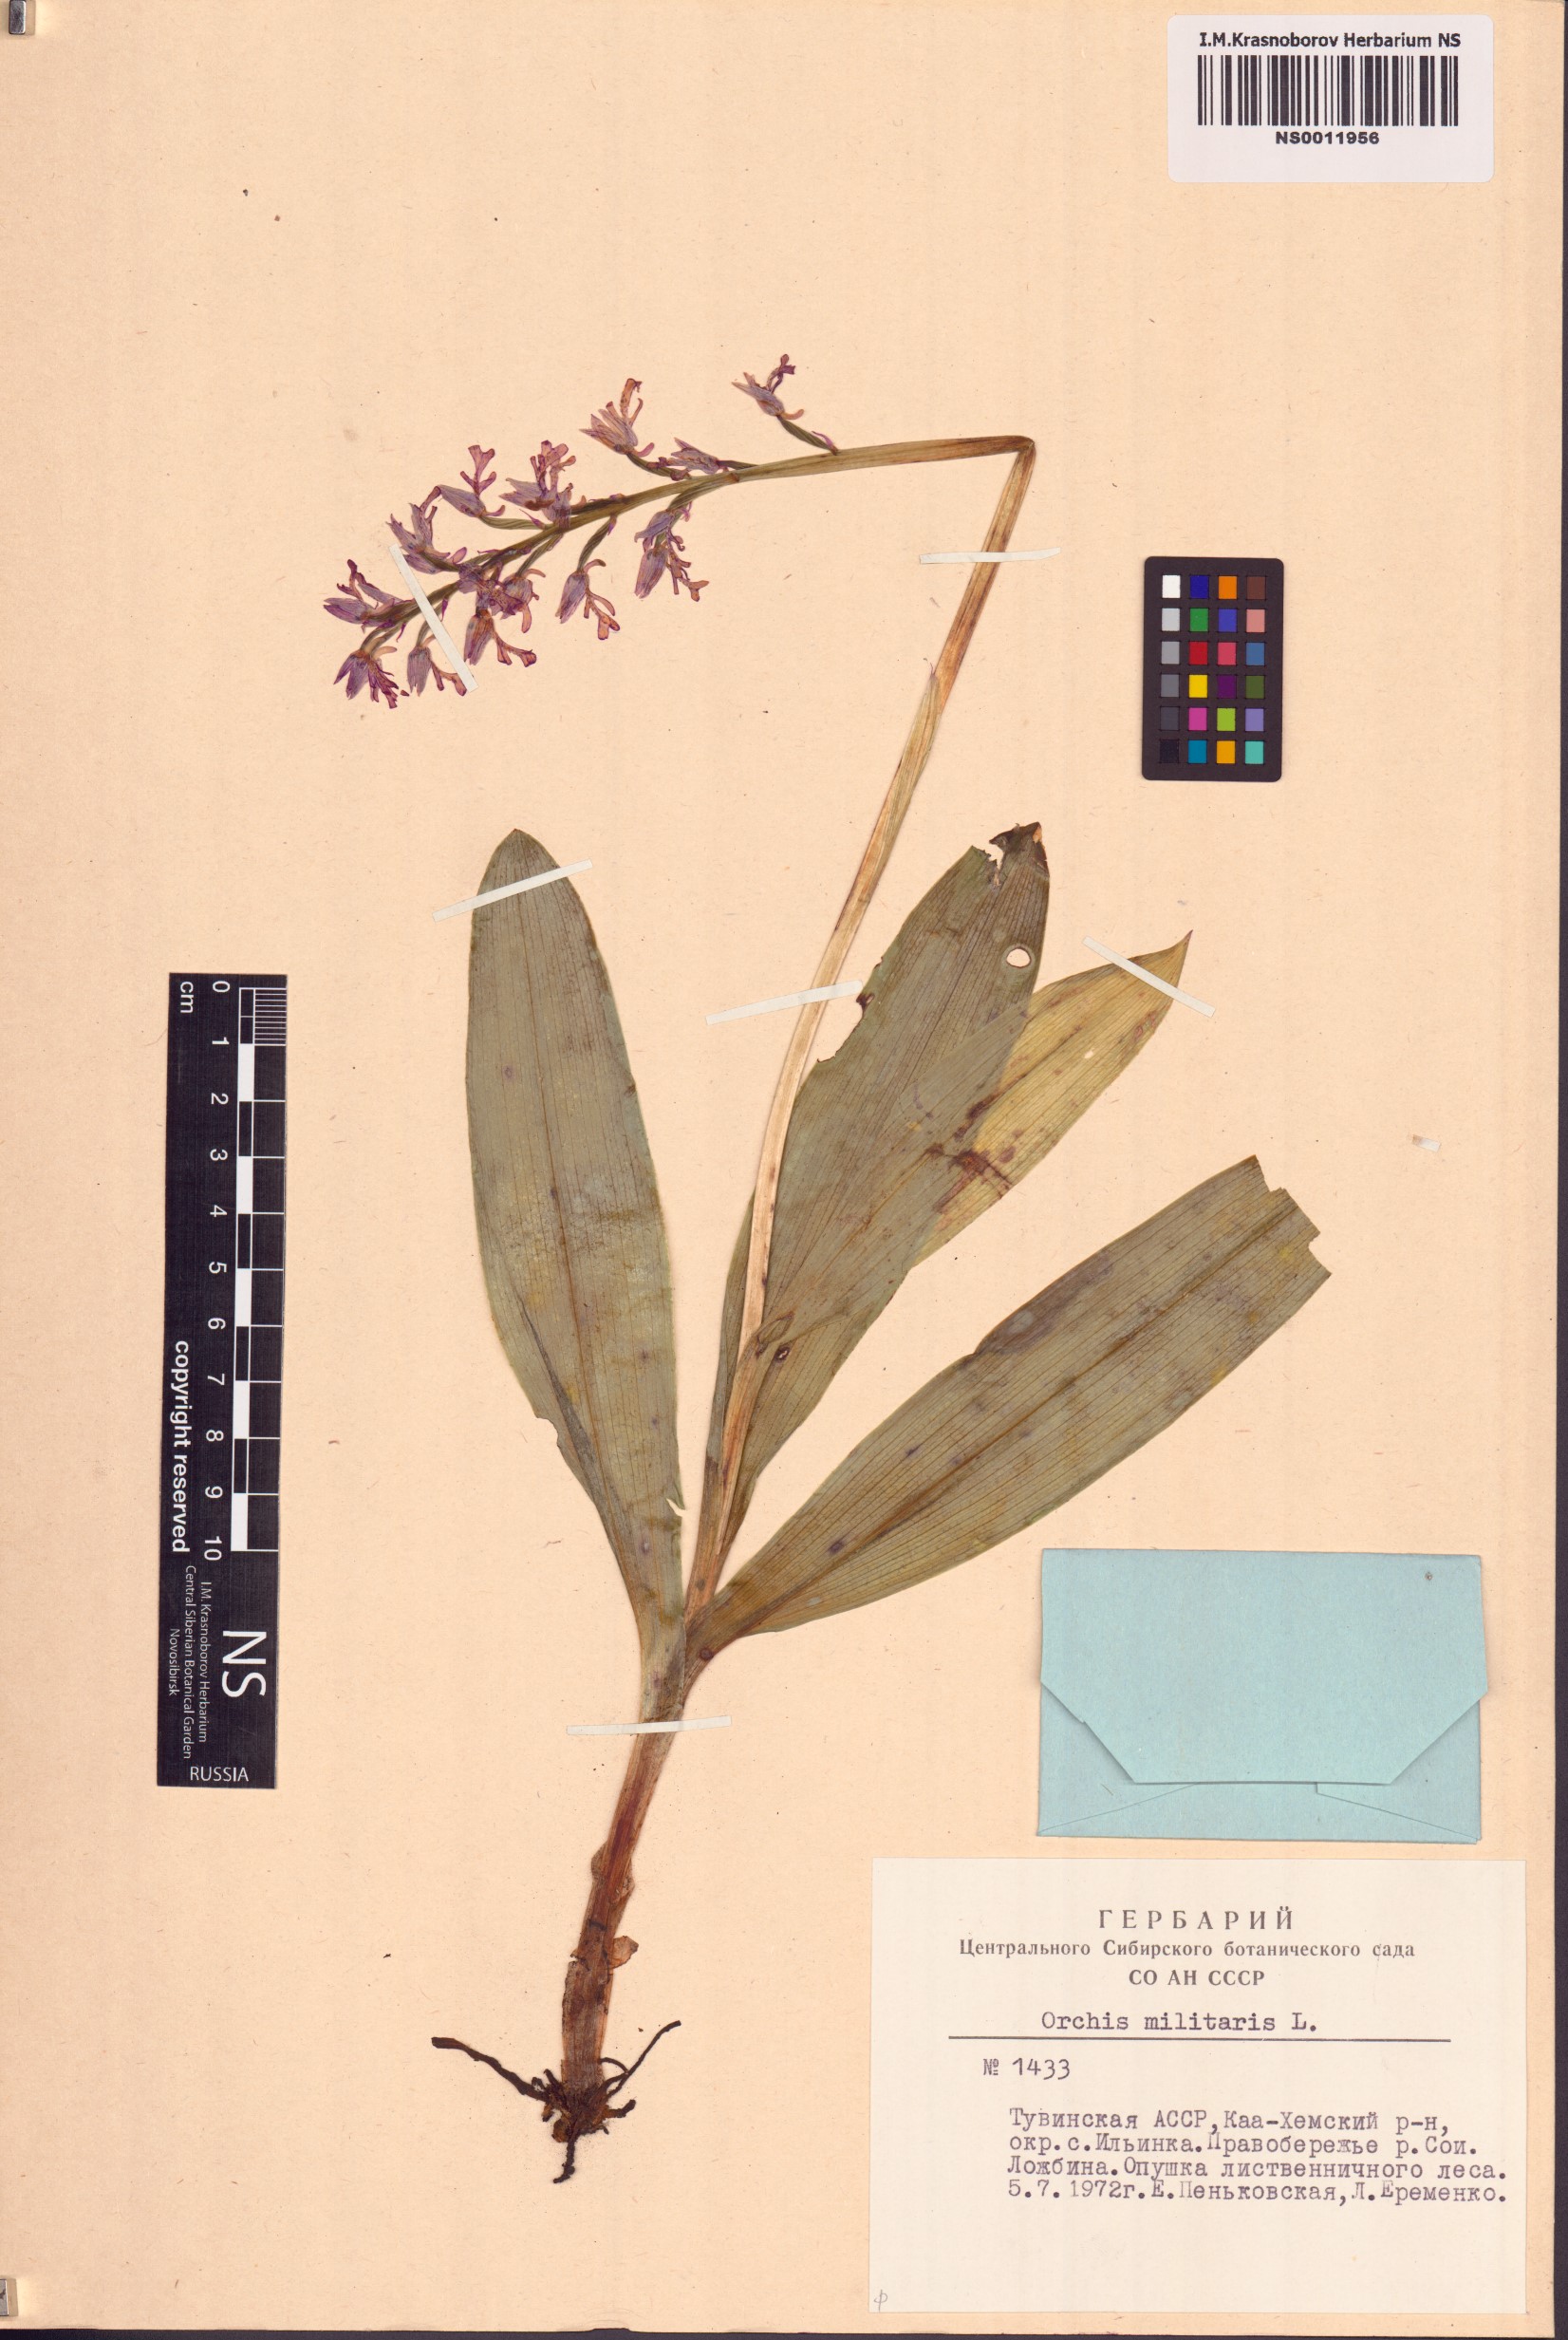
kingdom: Plantae
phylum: Tracheophyta
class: Liliopsida
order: Asparagales
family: Orchidaceae
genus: Orchis
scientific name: Orchis militaris
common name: Military orchid
